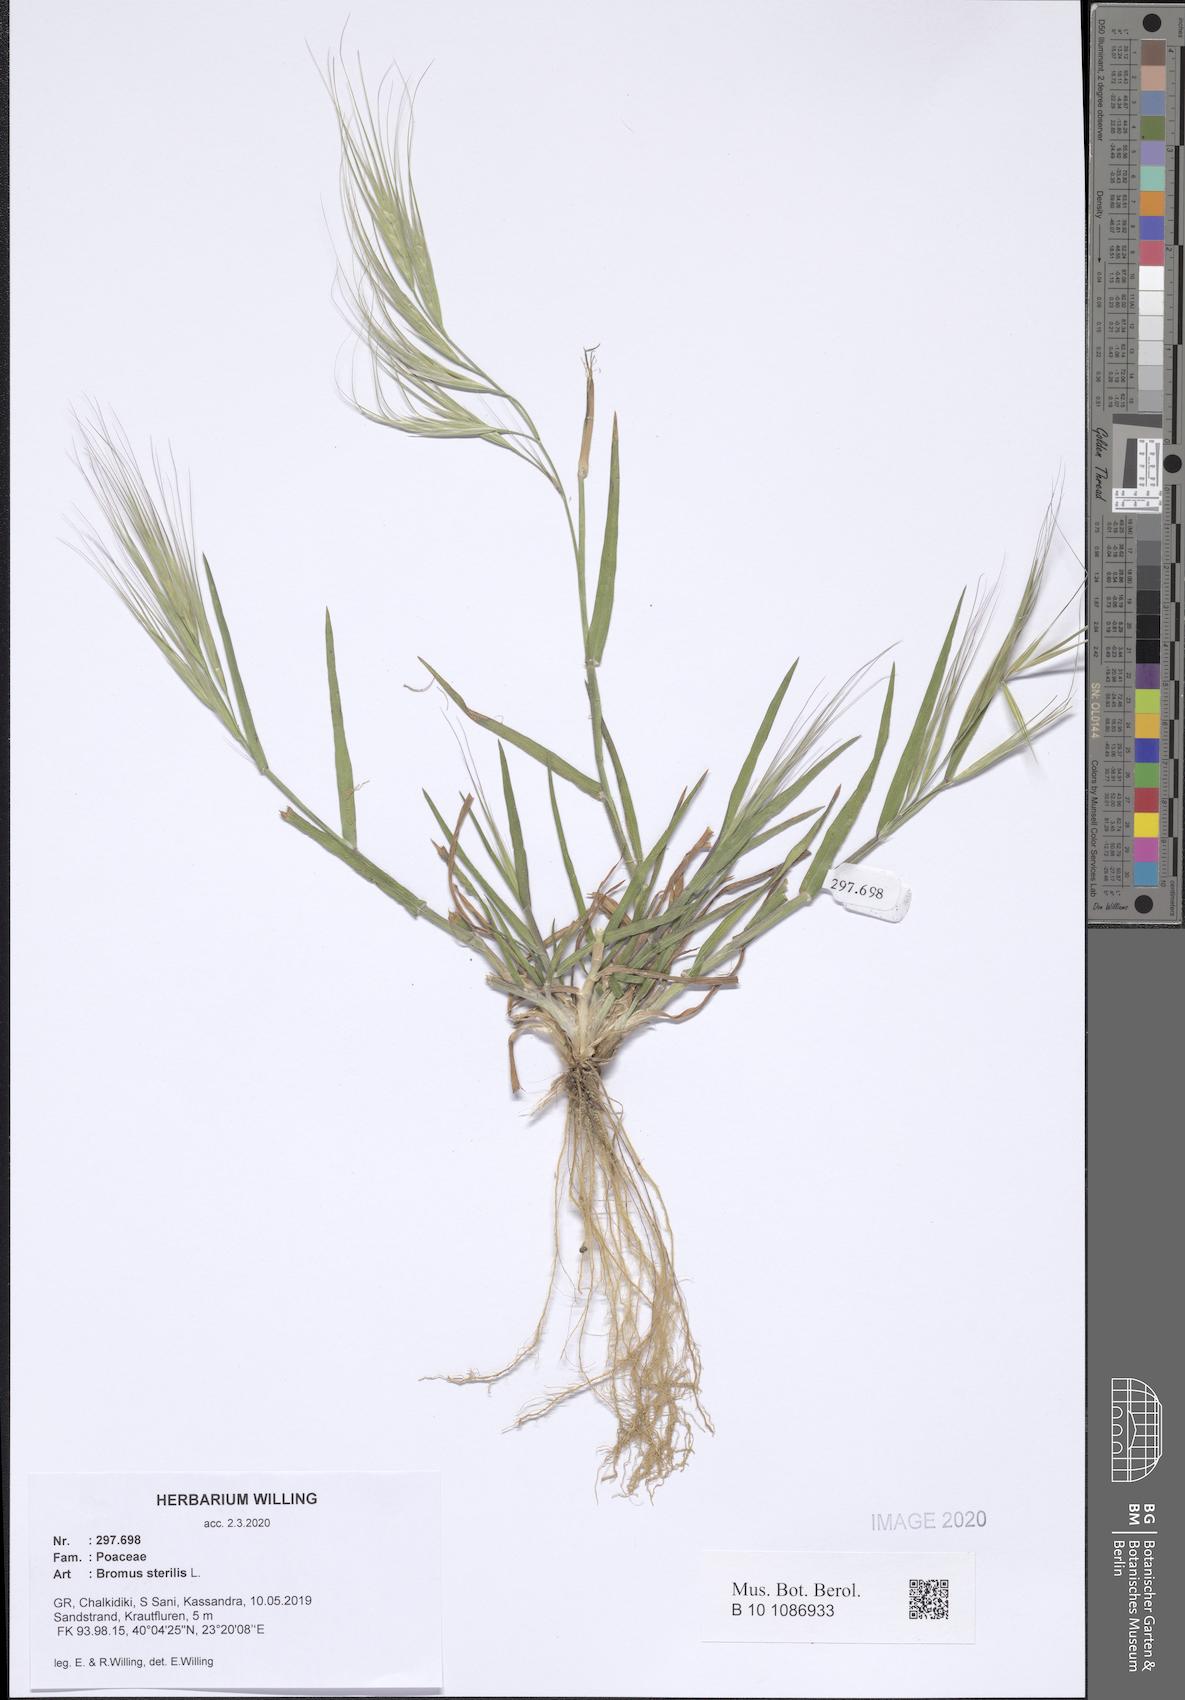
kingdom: Plantae
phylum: Tracheophyta
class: Liliopsida
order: Poales
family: Poaceae
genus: Bromus
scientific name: Bromus sterilis
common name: Poverty brome
